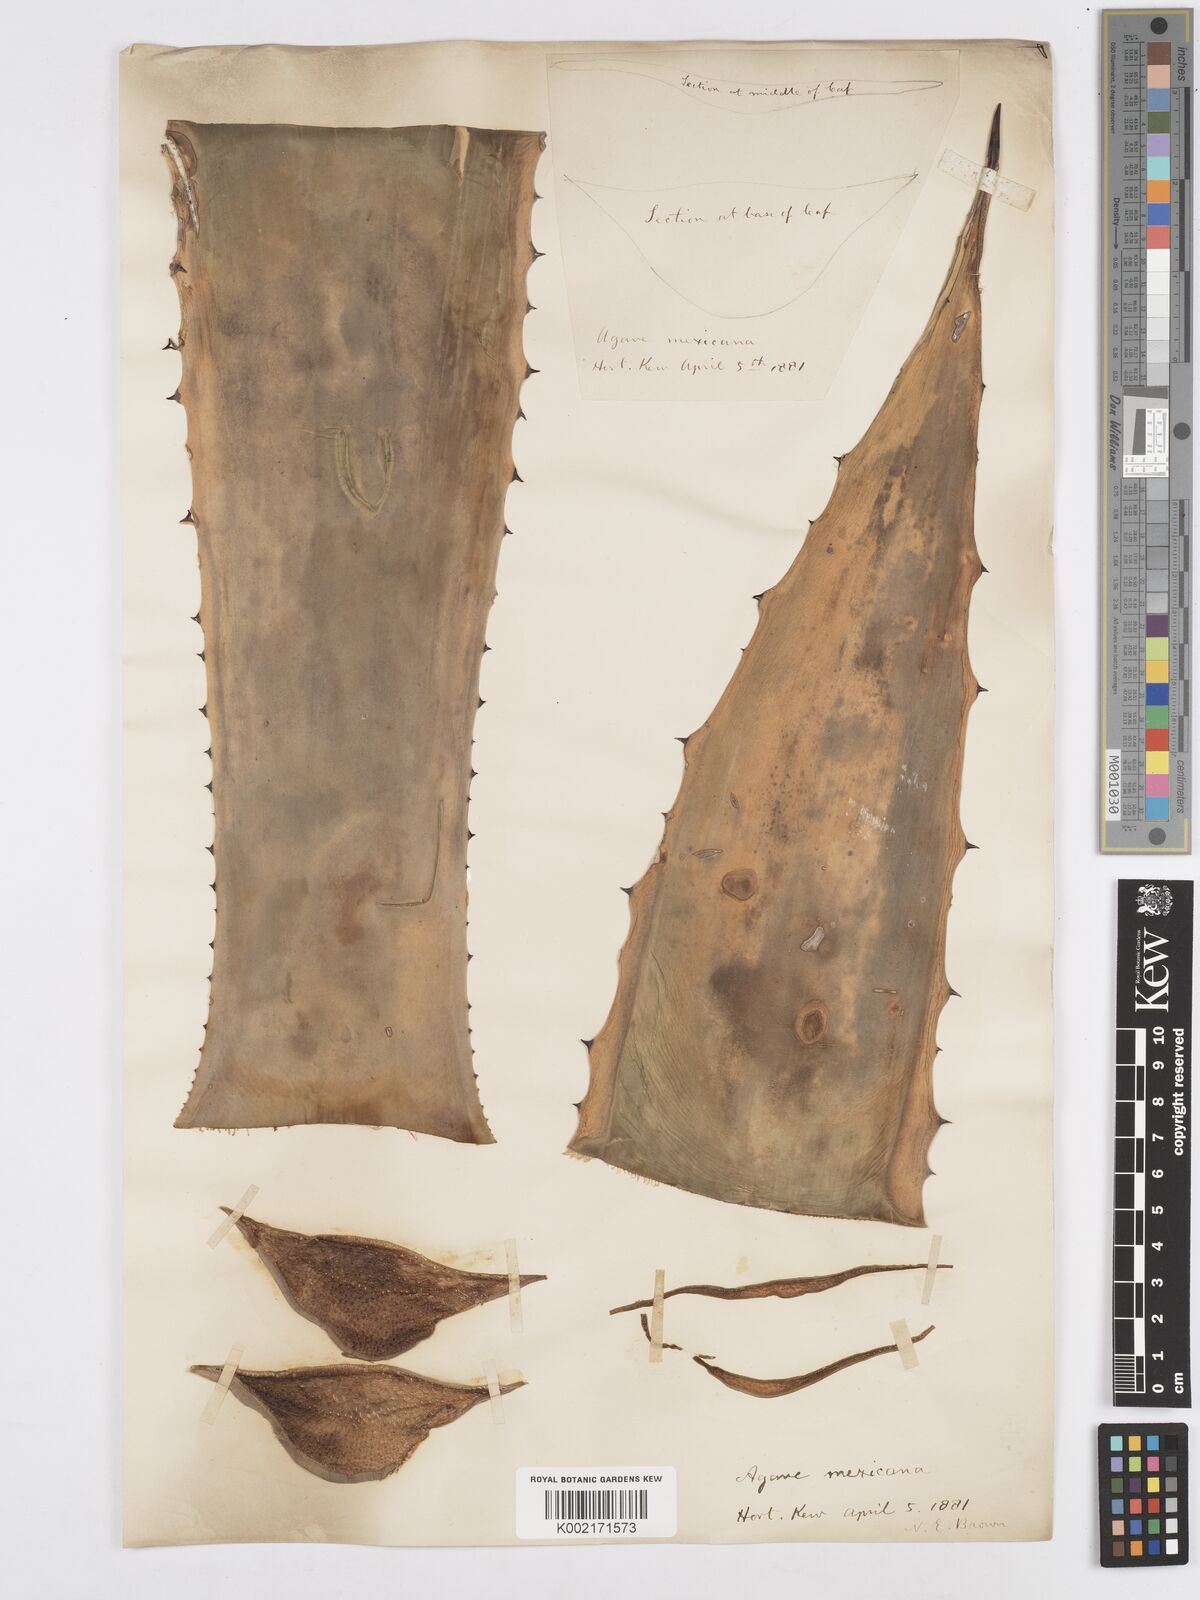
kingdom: Plantae
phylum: Tracheophyta
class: Liliopsida
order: Asparagales
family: Asparagaceae
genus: Agave
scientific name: Agave vera-cruz
